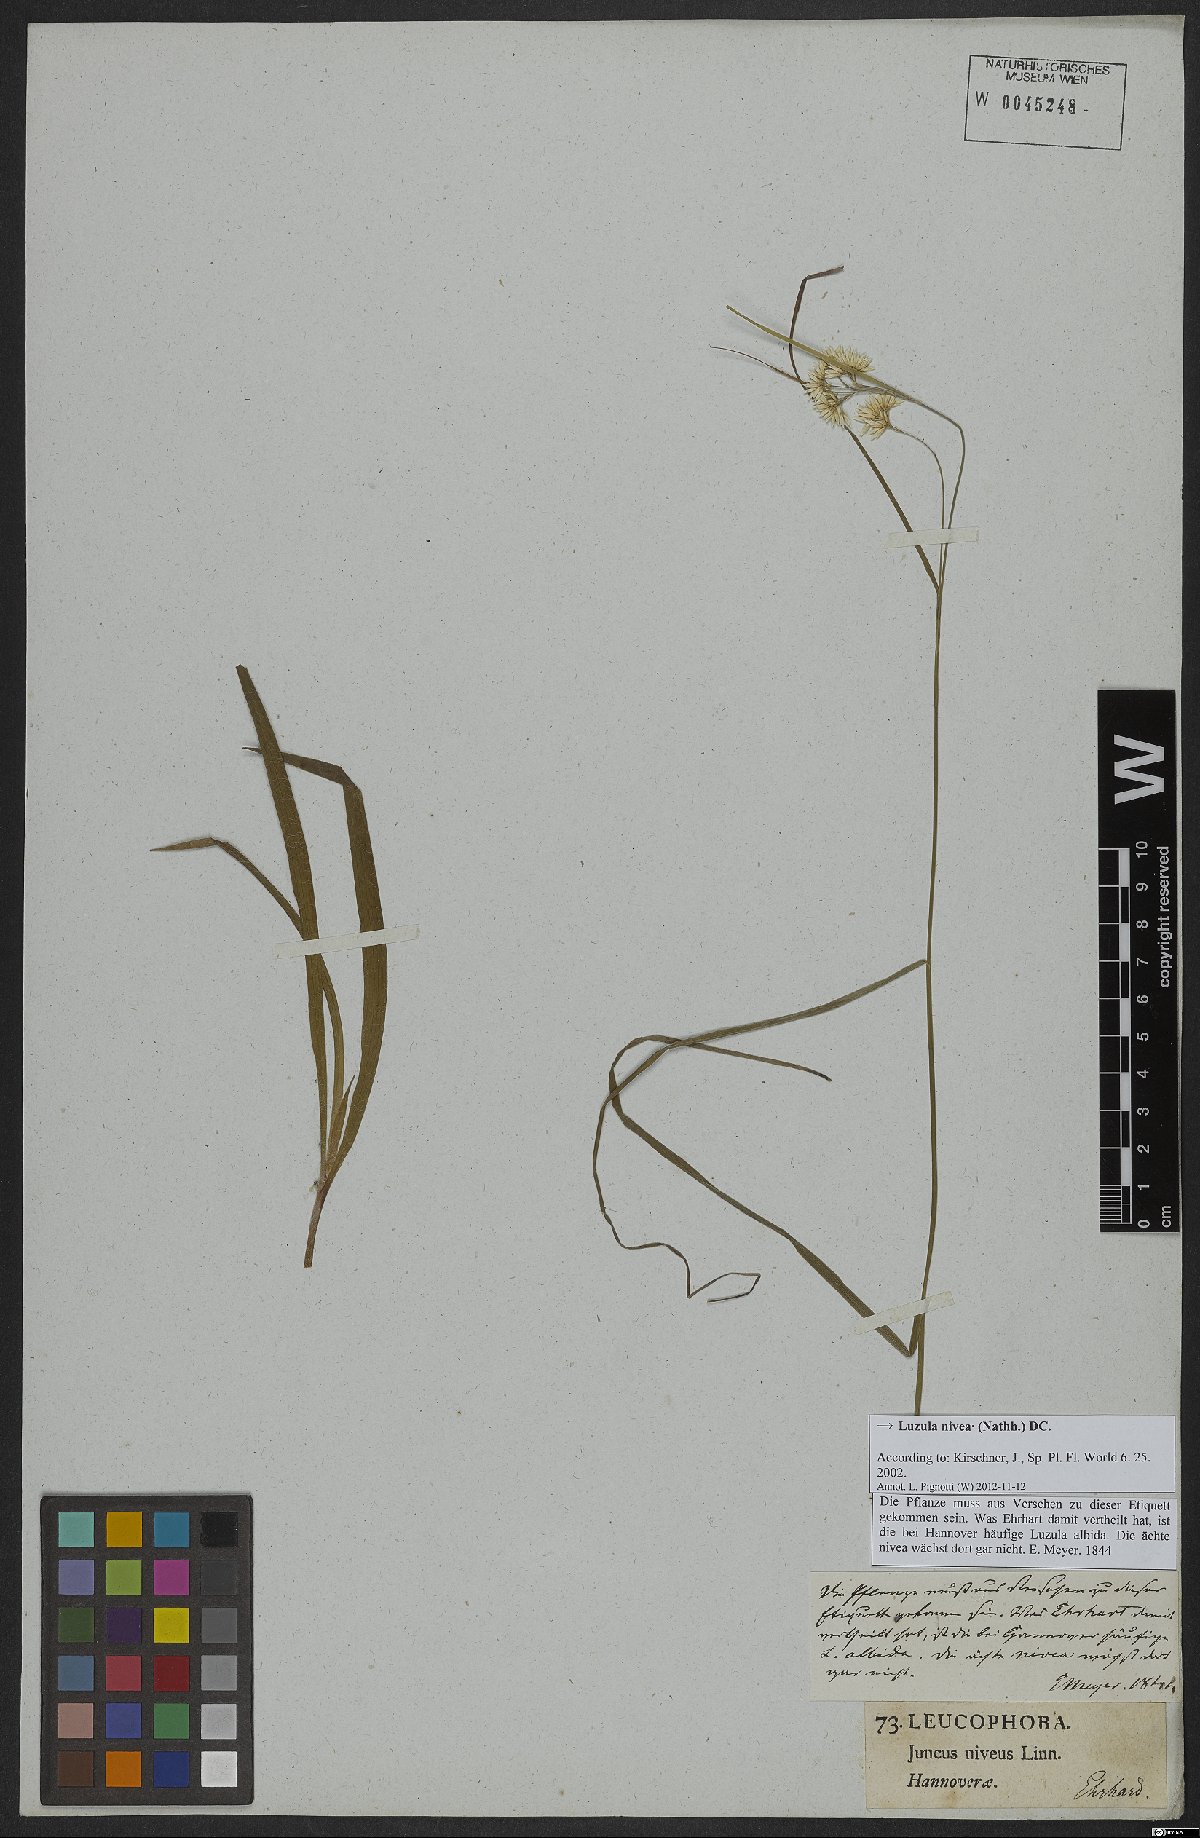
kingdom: Plantae
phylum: Tracheophyta
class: Liliopsida
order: Poales
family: Juncaceae
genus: Luzula
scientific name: Luzula nivea
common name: Snow-white wood-rush
